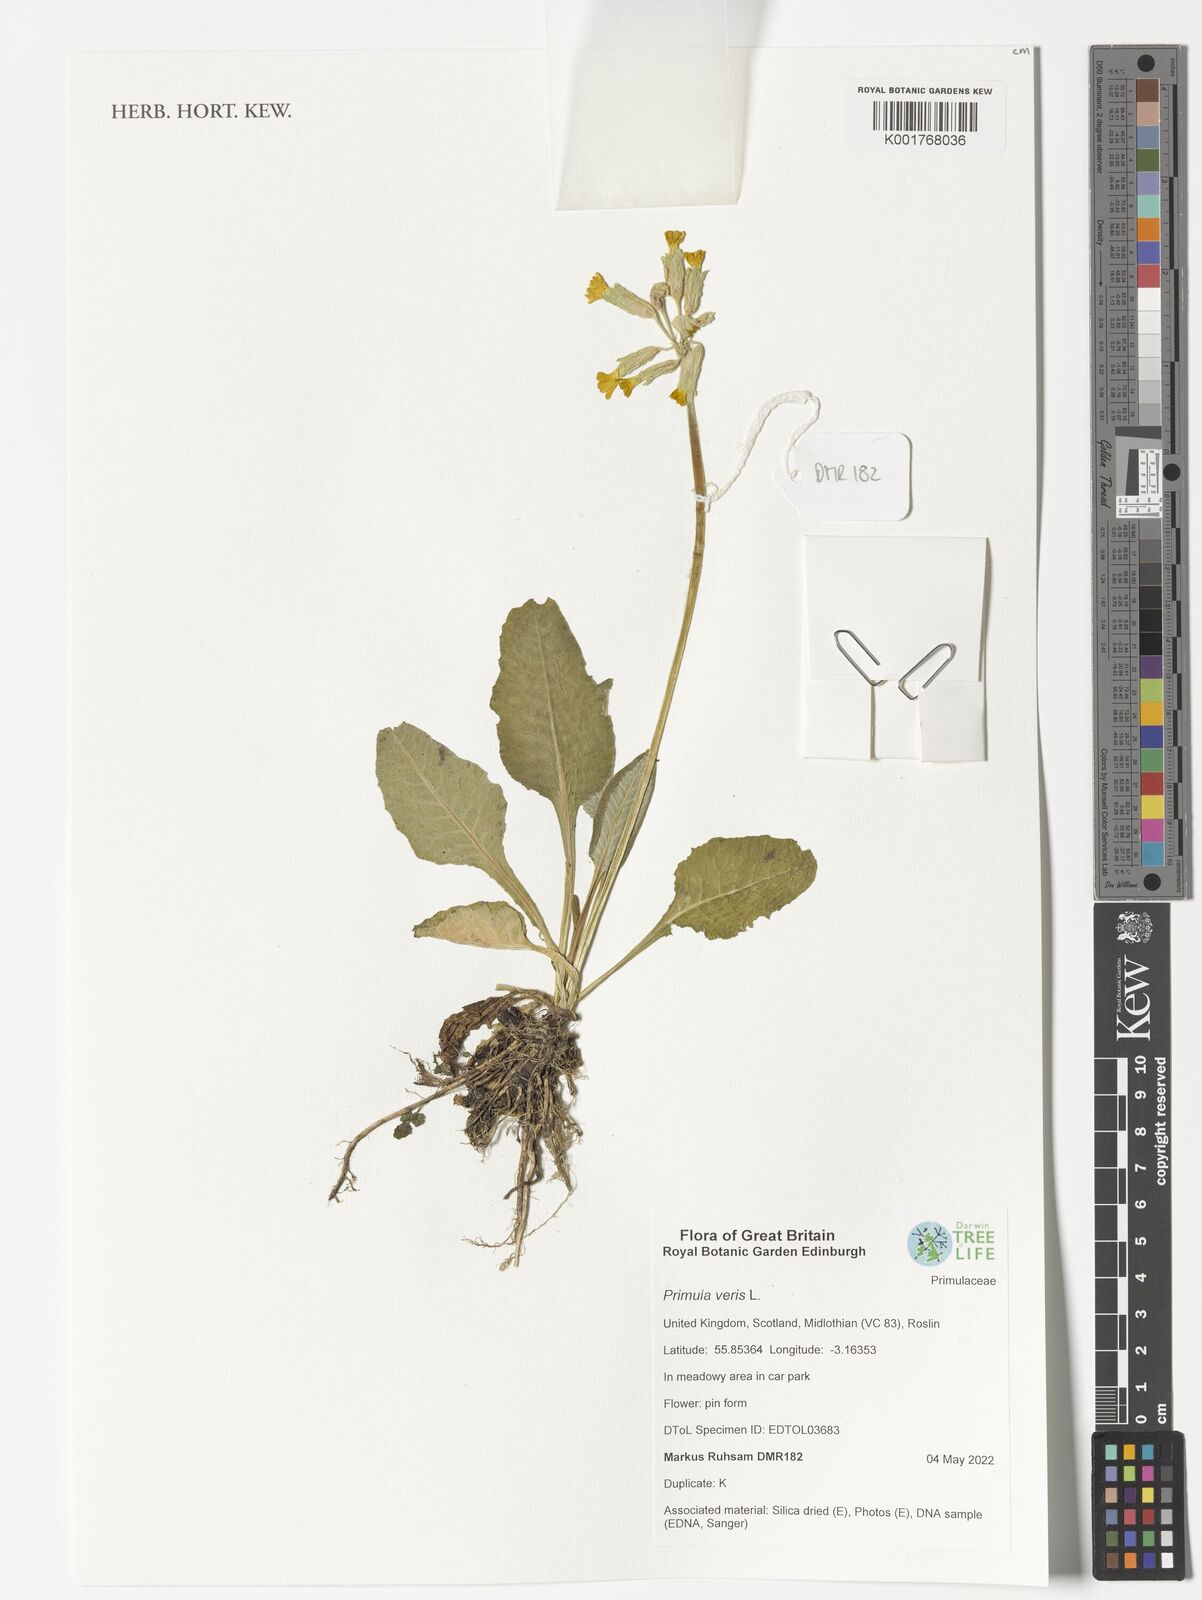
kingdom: Plantae
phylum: Tracheophyta
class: Magnoliopsida
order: Ericales
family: Primulaceae
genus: Primula
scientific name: Primula veris
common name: Cowslip
